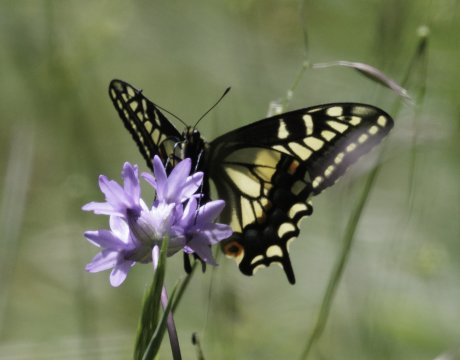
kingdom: Animalia
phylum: Arthropoda
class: Insecta
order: Lepidoptera
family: Papilionidae
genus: Papilio
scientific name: Papilio zelicaon
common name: Anise Swallowtail
